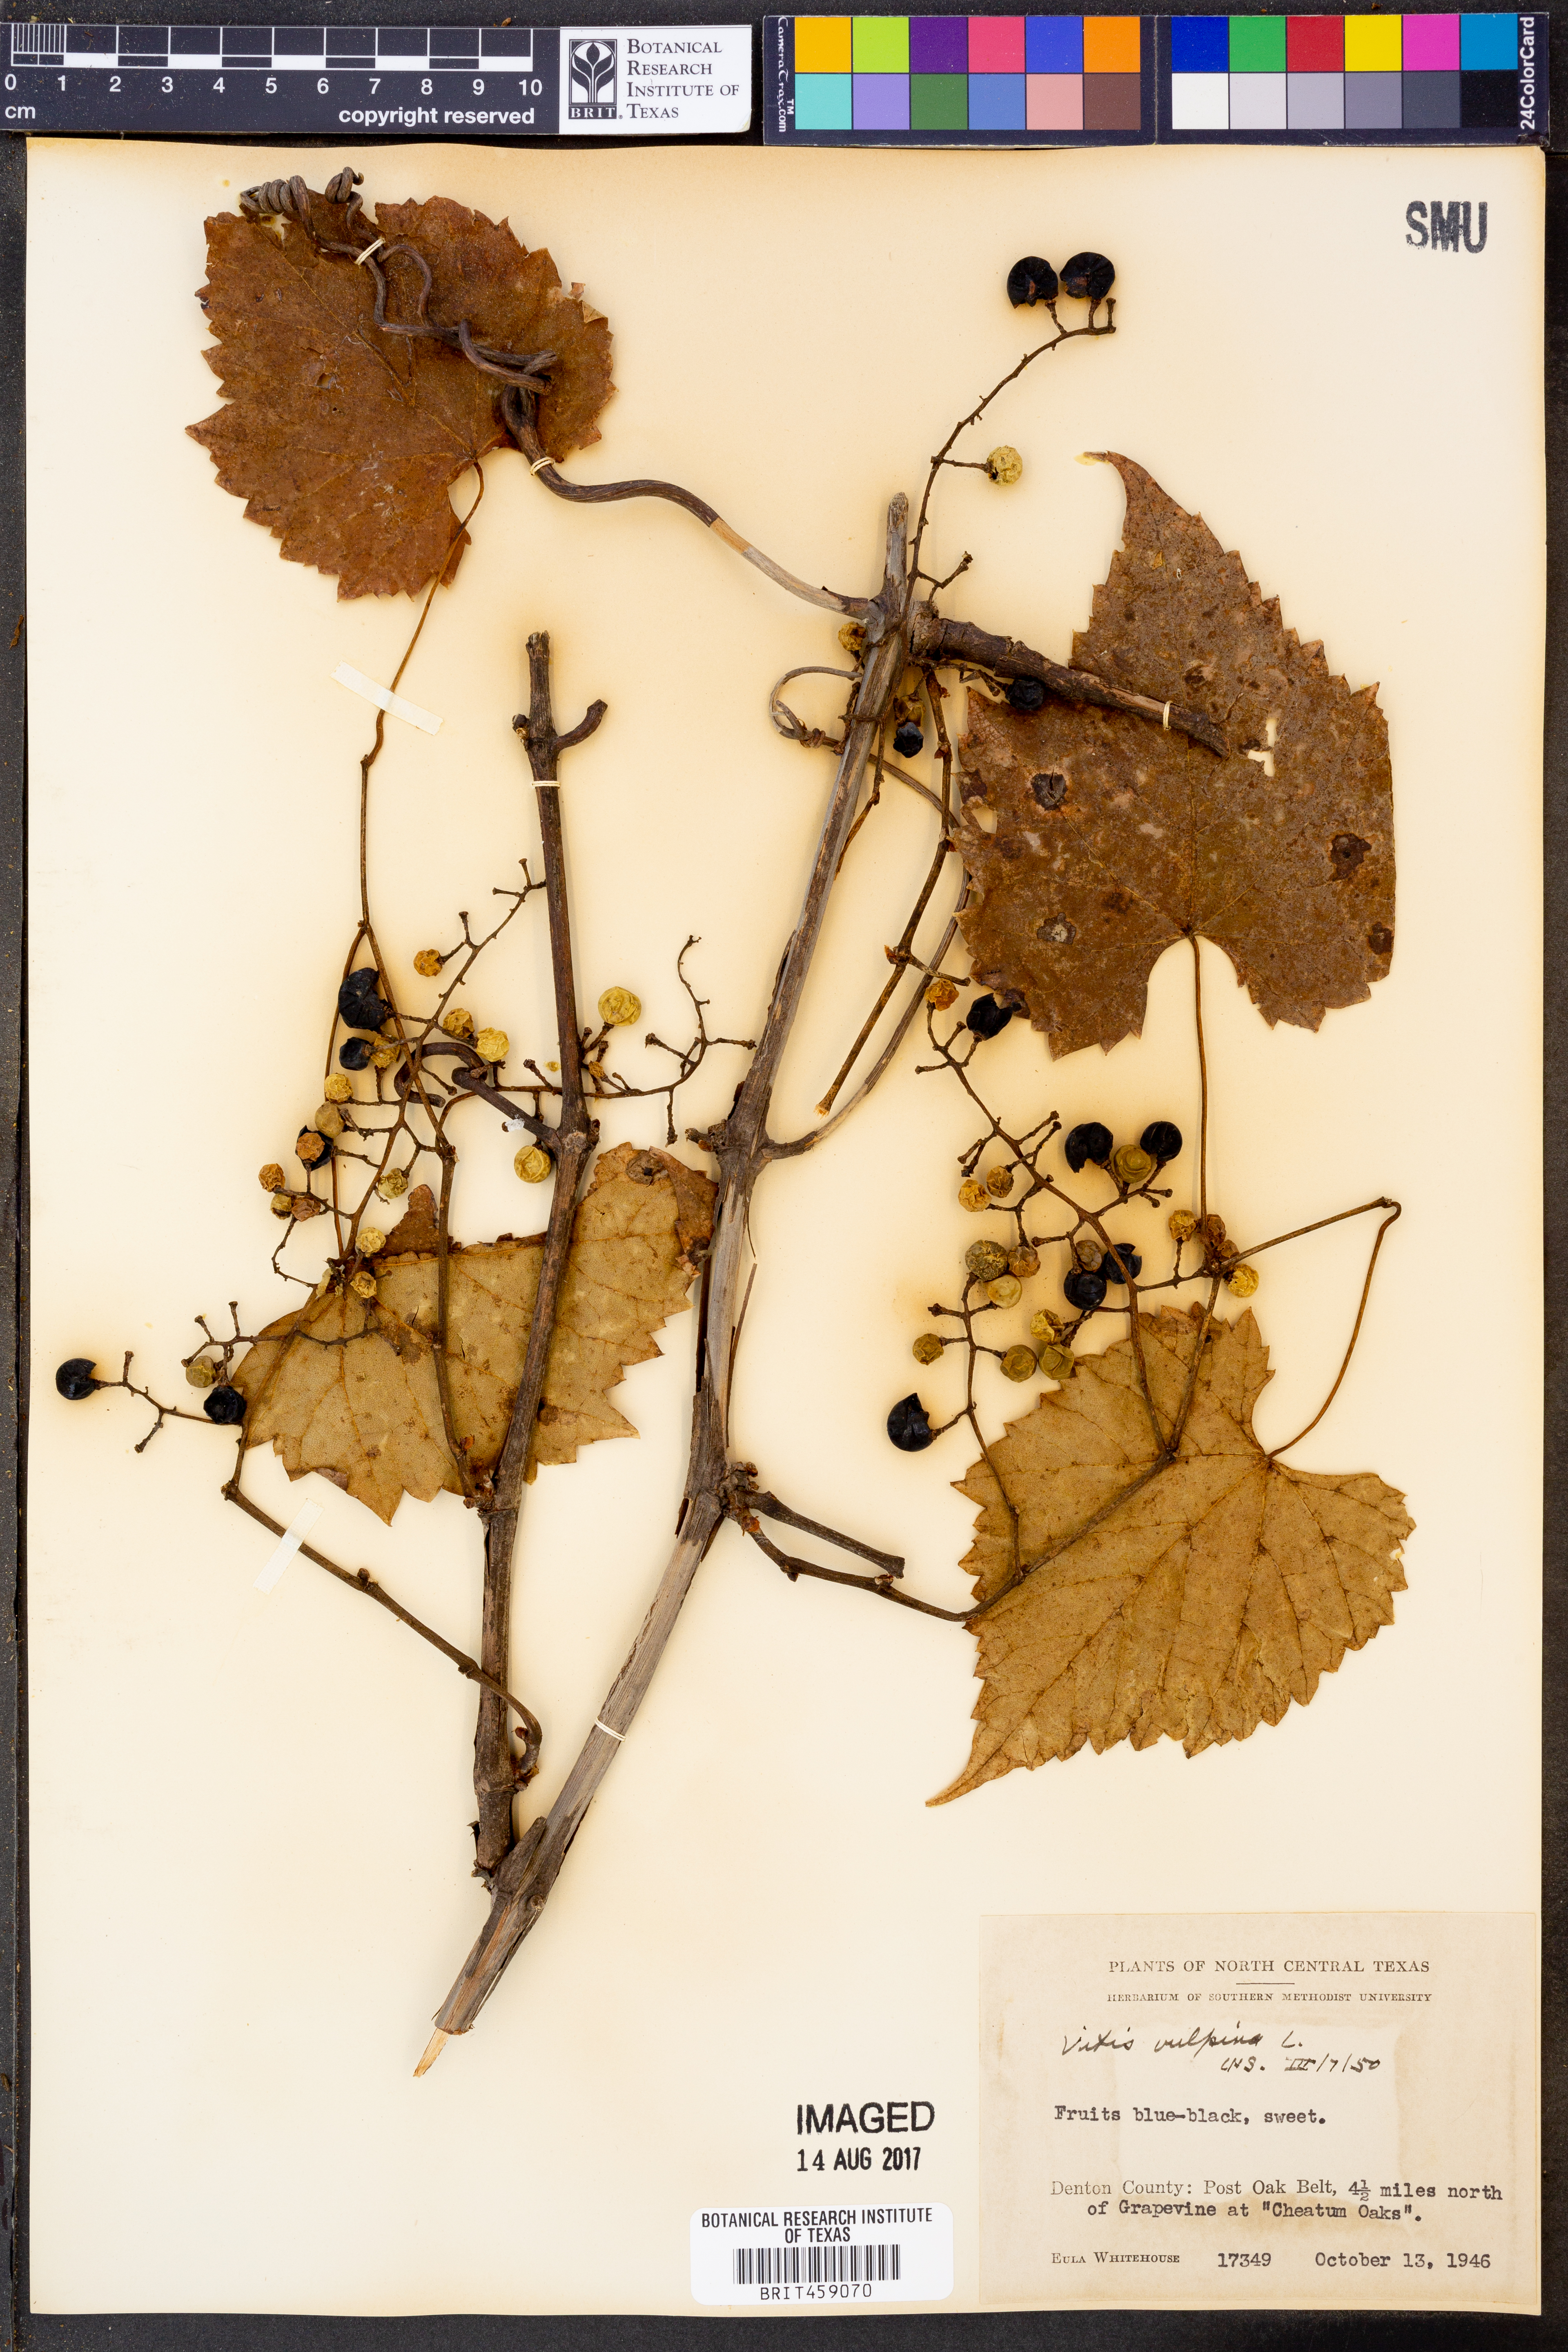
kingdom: Plantae
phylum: Tracheophyta
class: Magnoliopsida
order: Vitales
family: Vitaceae
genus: Vitis
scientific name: Vitis vulpina
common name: Frost grape
